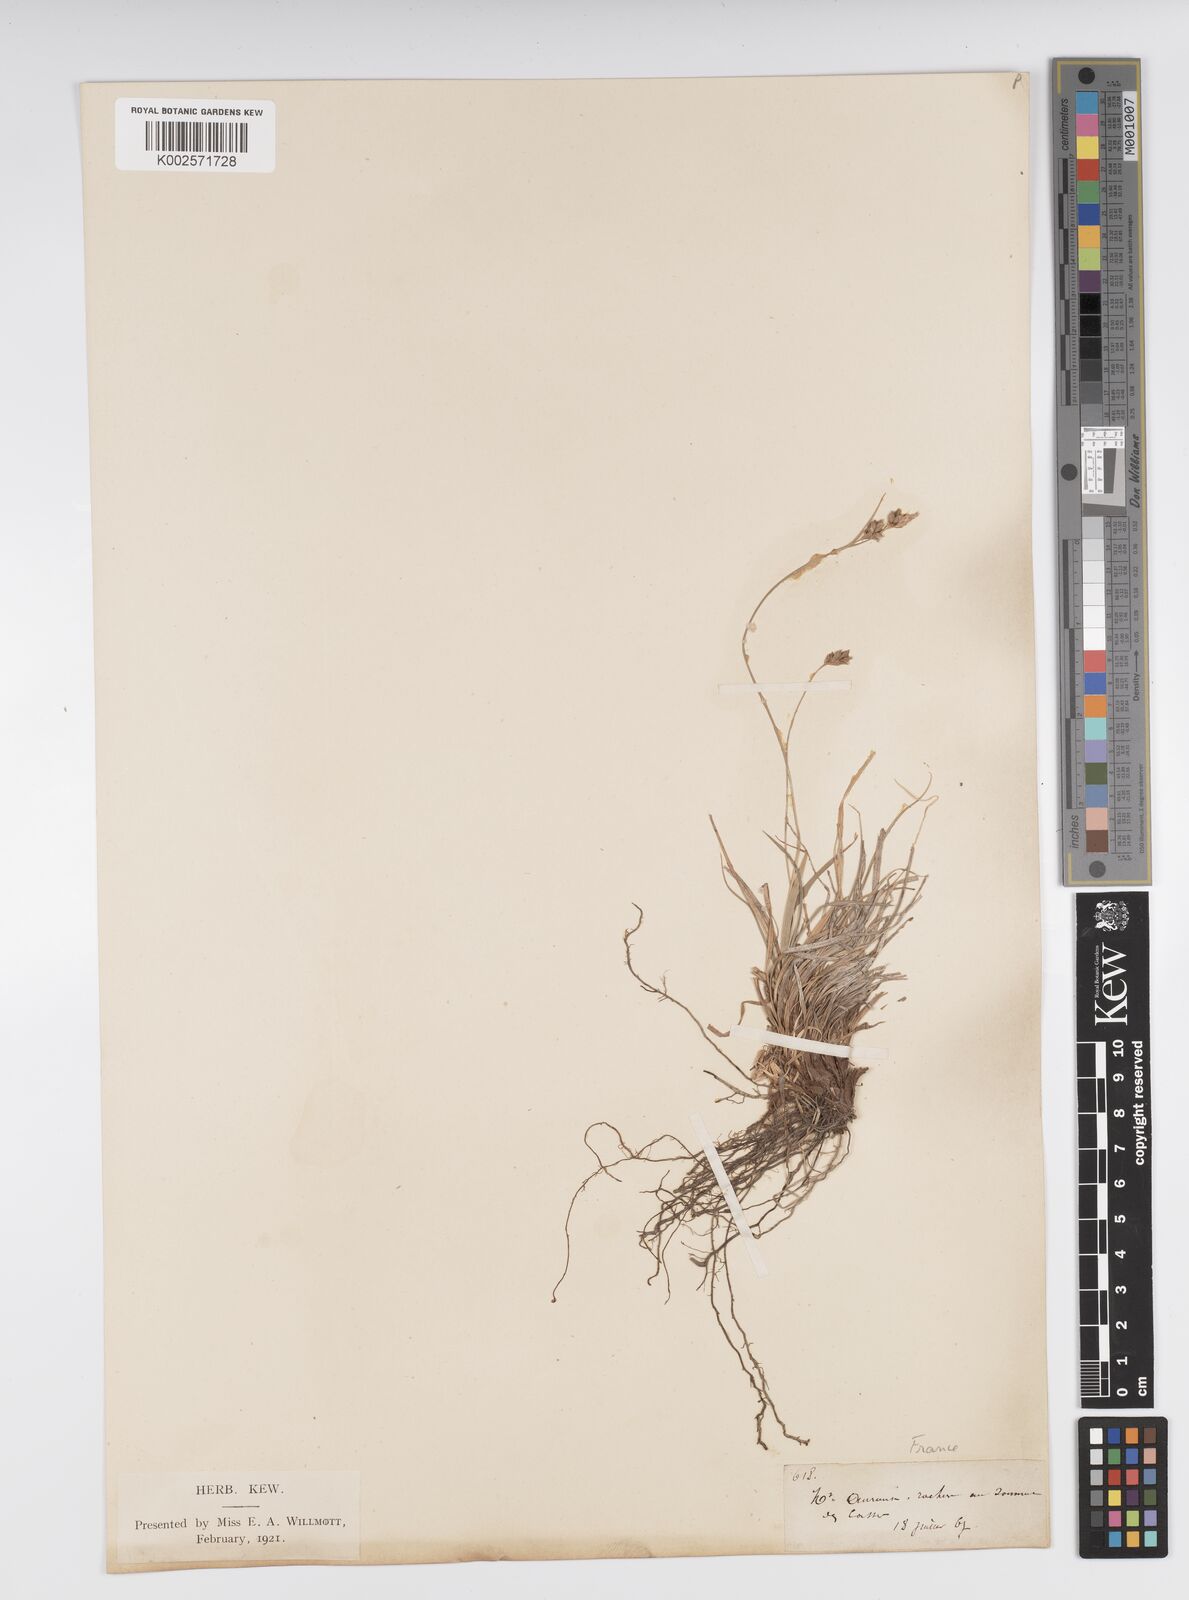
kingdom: Plantae
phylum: Tracheophyta
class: Liliopsida
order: Poales
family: Cyperaceae
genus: Carex
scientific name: Carex caryophyllea
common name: Spring sedge
